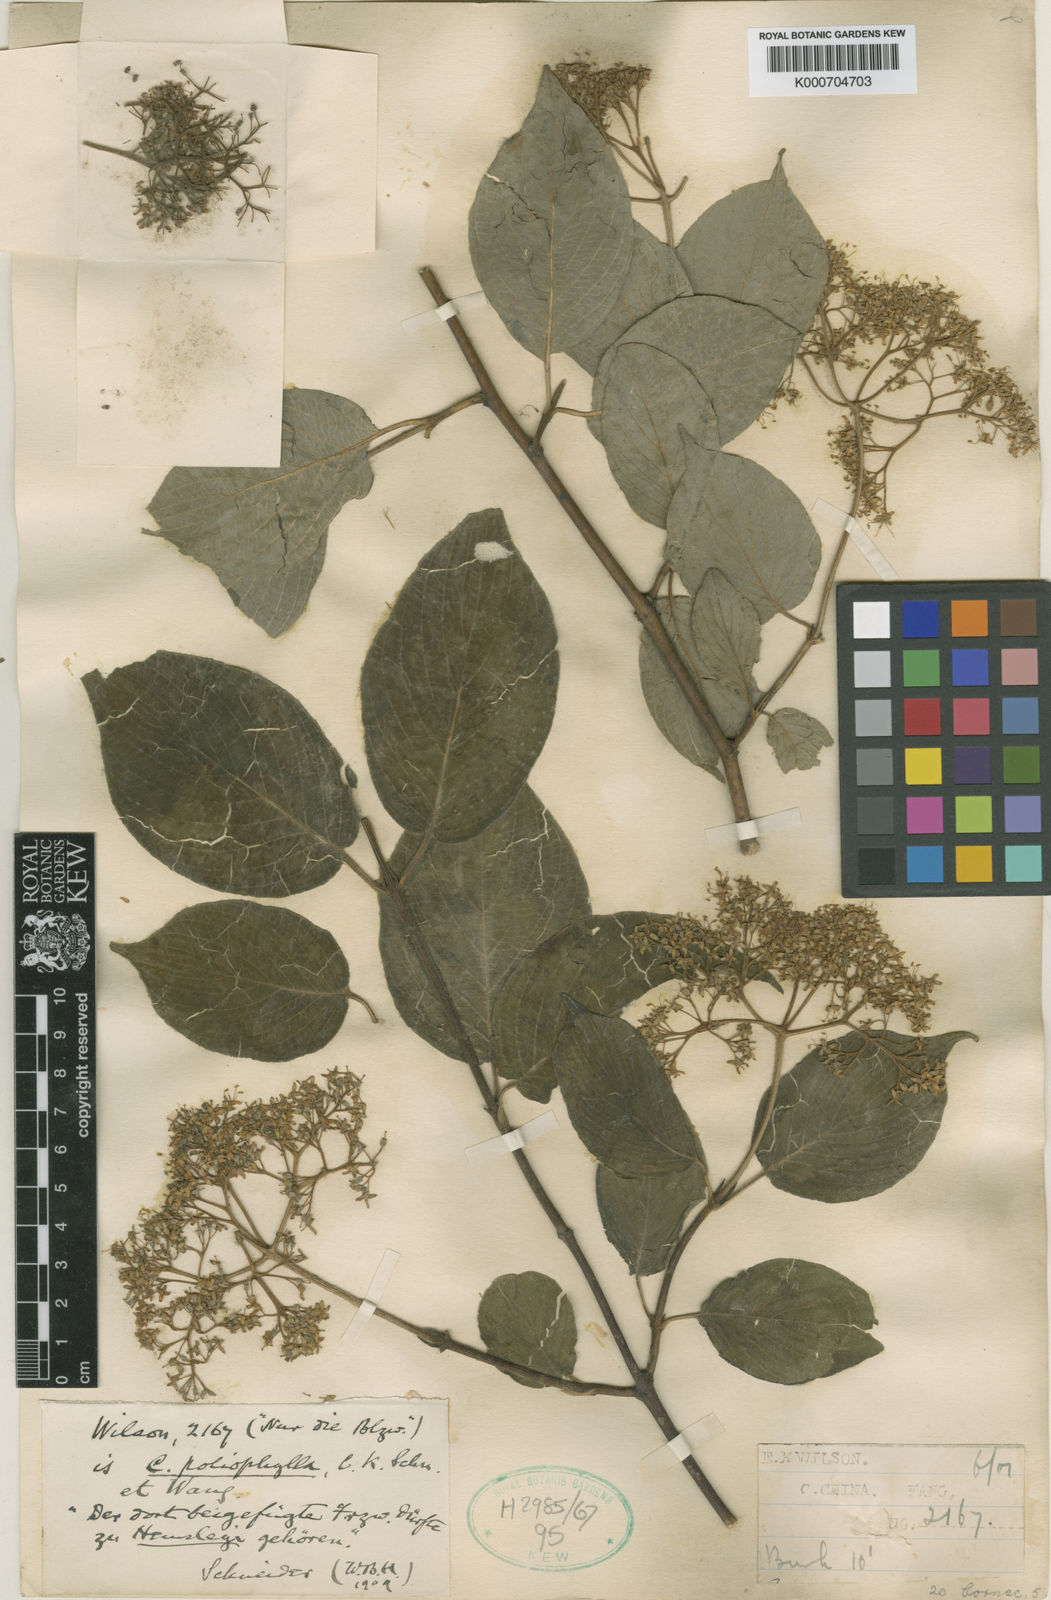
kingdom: Plantae
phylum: Tracheophyta
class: Magnoliopsida
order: Cornales
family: Cornaceae
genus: Cornus
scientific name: Cornus schindleri
